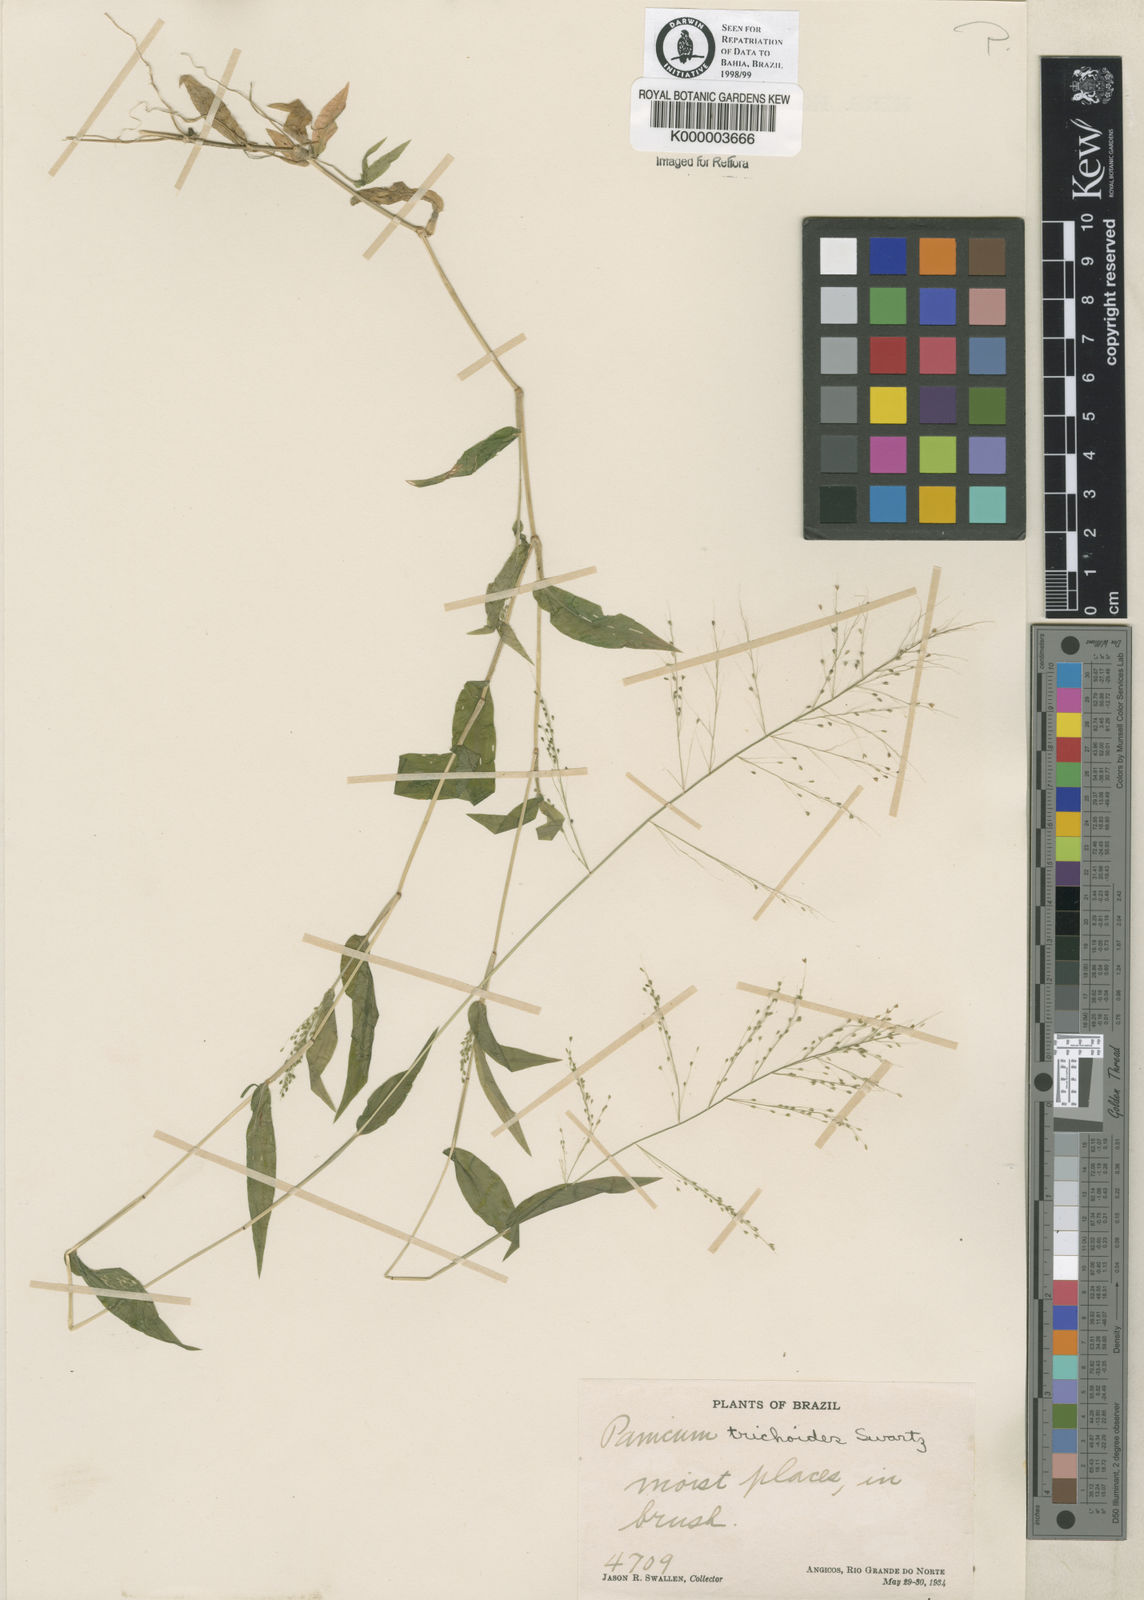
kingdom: Plantae
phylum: Tracheophyta
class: Liliopsida
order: Poales
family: Poaceae
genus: Panicum
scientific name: Panicum
